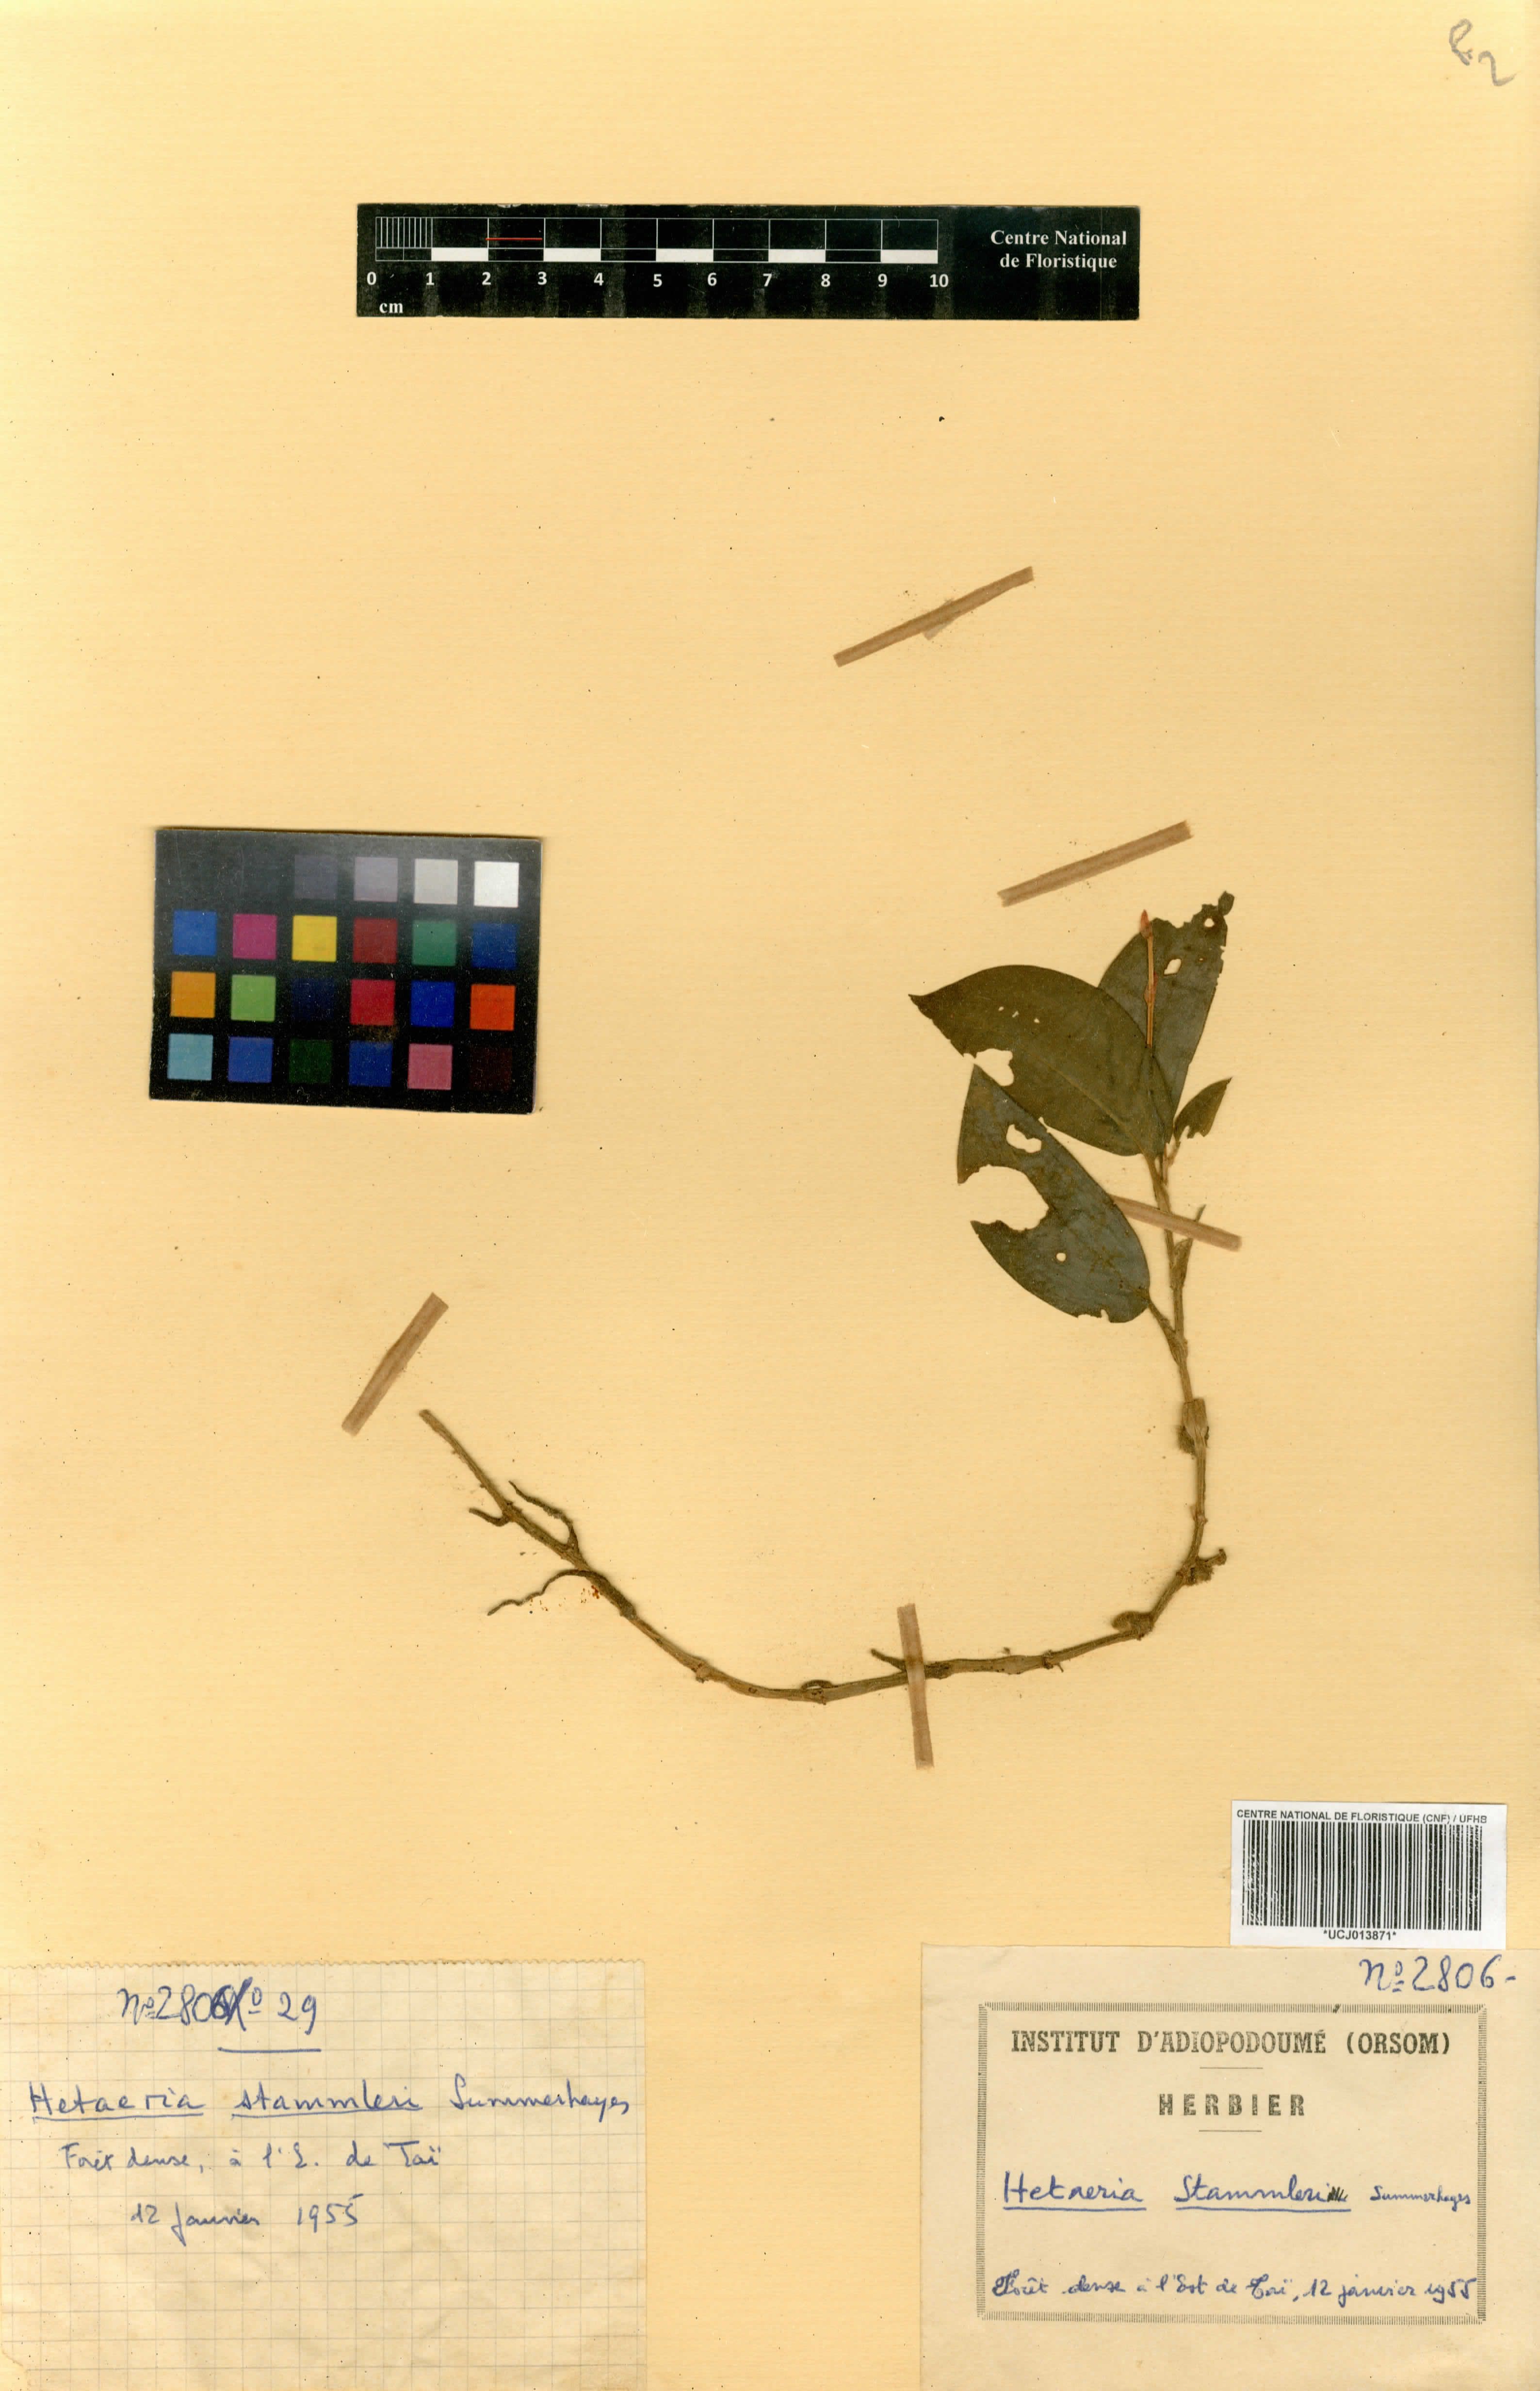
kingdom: Plantae
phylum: Tracheophyta
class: Liliopsida
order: Asparagales
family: Orchidaceae
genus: Zeuxine
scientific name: Zeuxine stammleri
